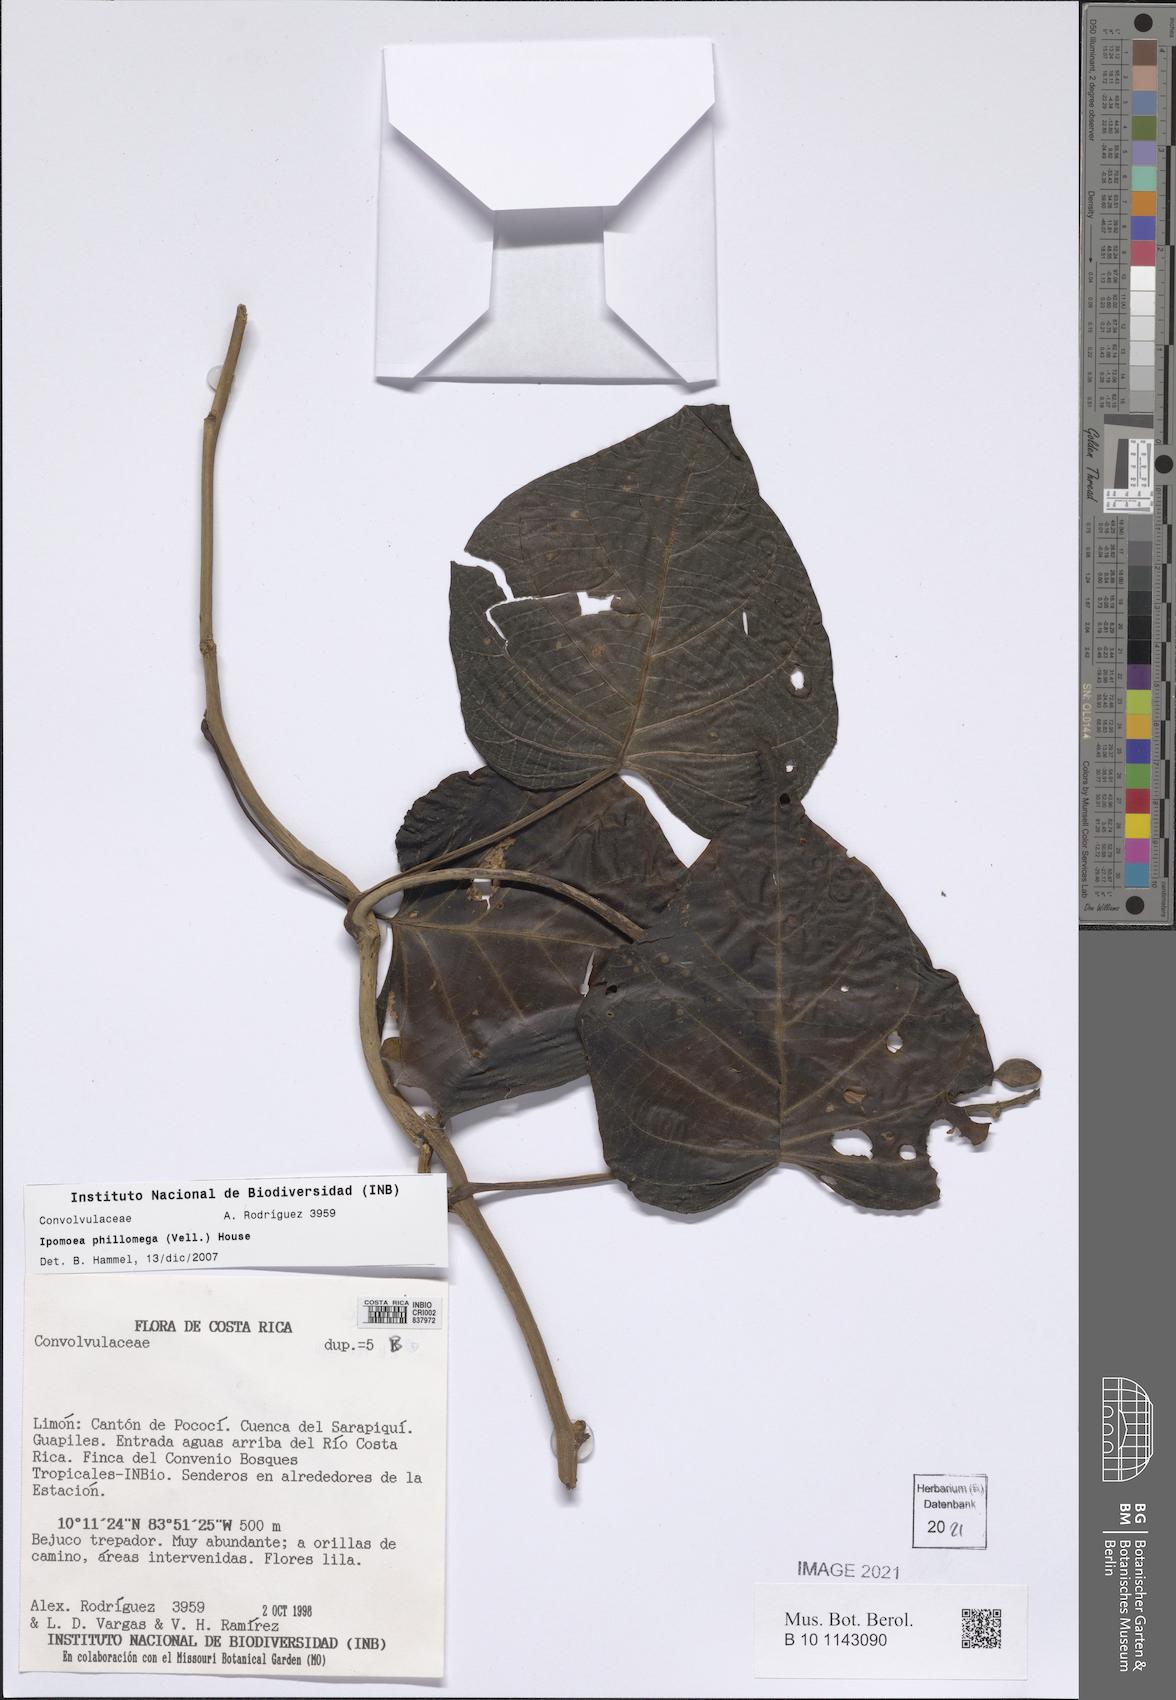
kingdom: Plantae
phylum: Tracheophyta
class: Magnoliopsida
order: Solanales
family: Convolvulaceae
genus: Ipomoea
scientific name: Ipomoea philomega
